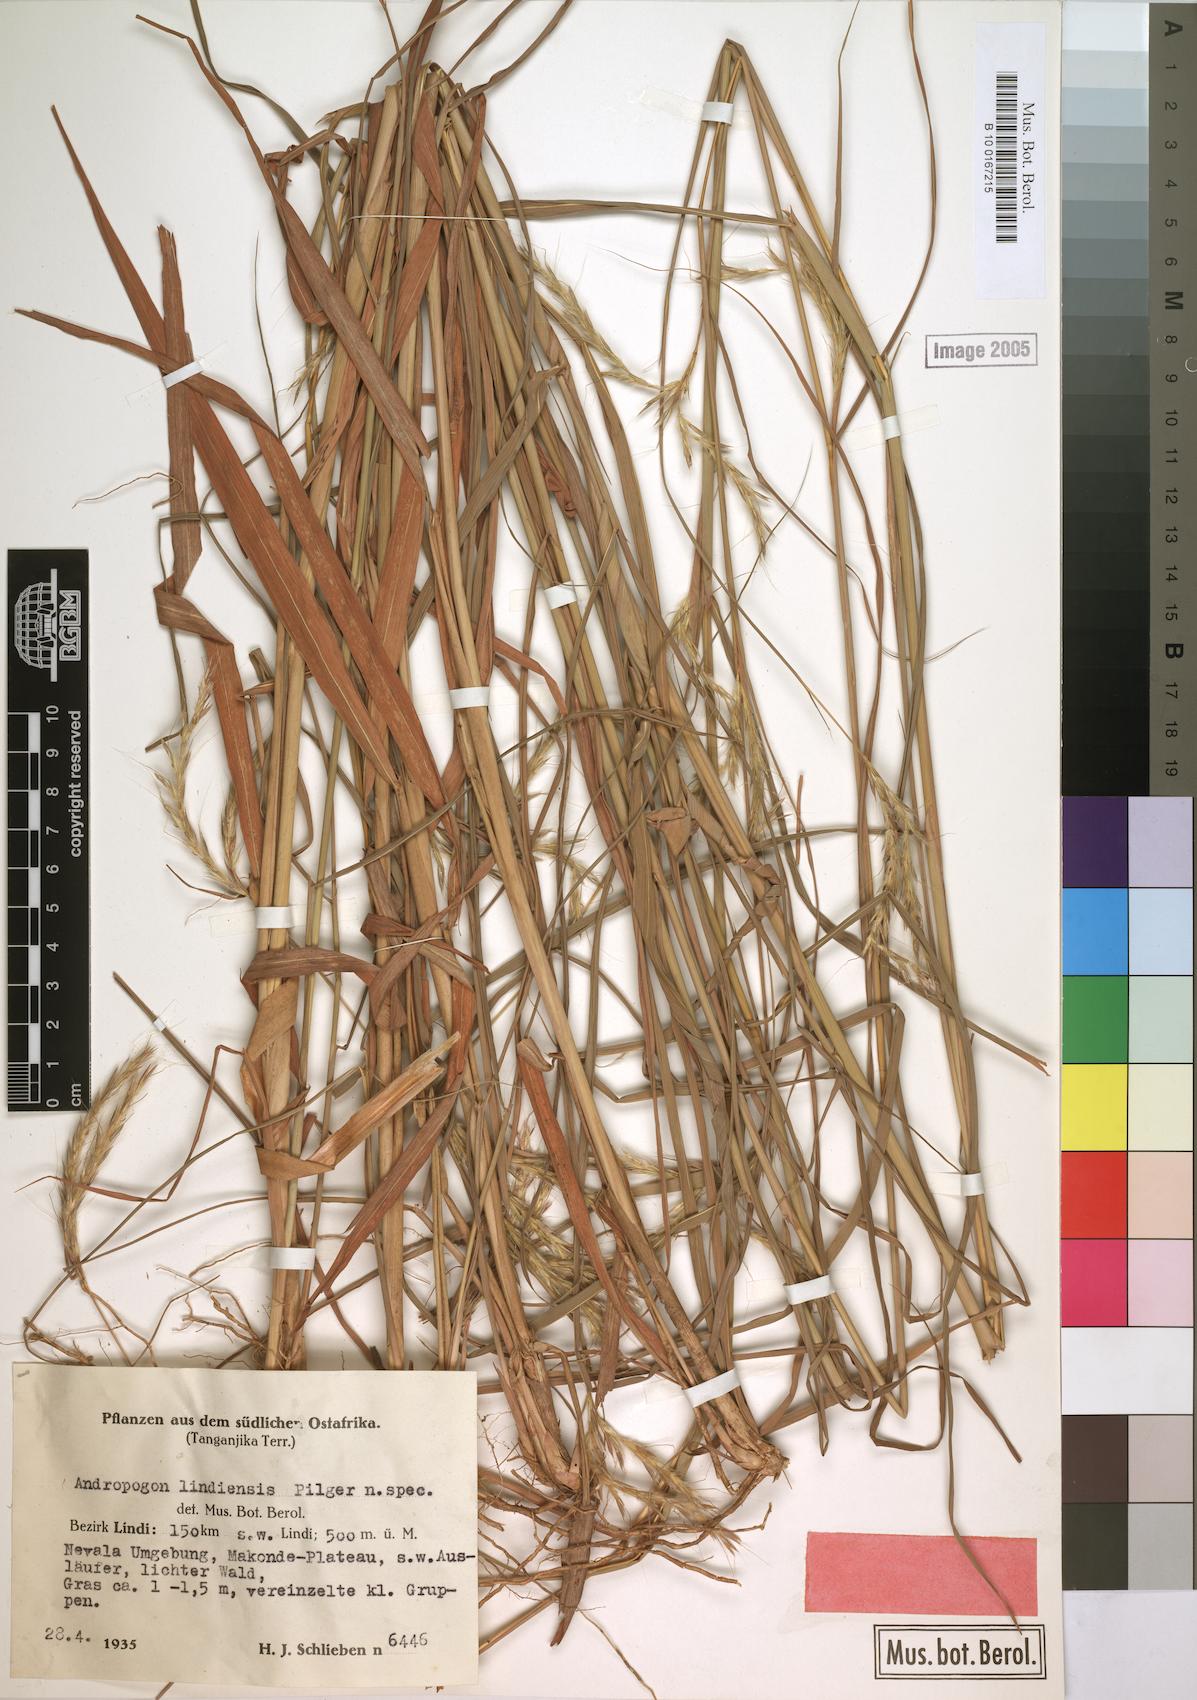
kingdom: Plantae
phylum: Tracheophyta
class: Liliopsida
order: Poales
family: Poaceae
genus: Andropogon
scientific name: Andropogon chinensis
